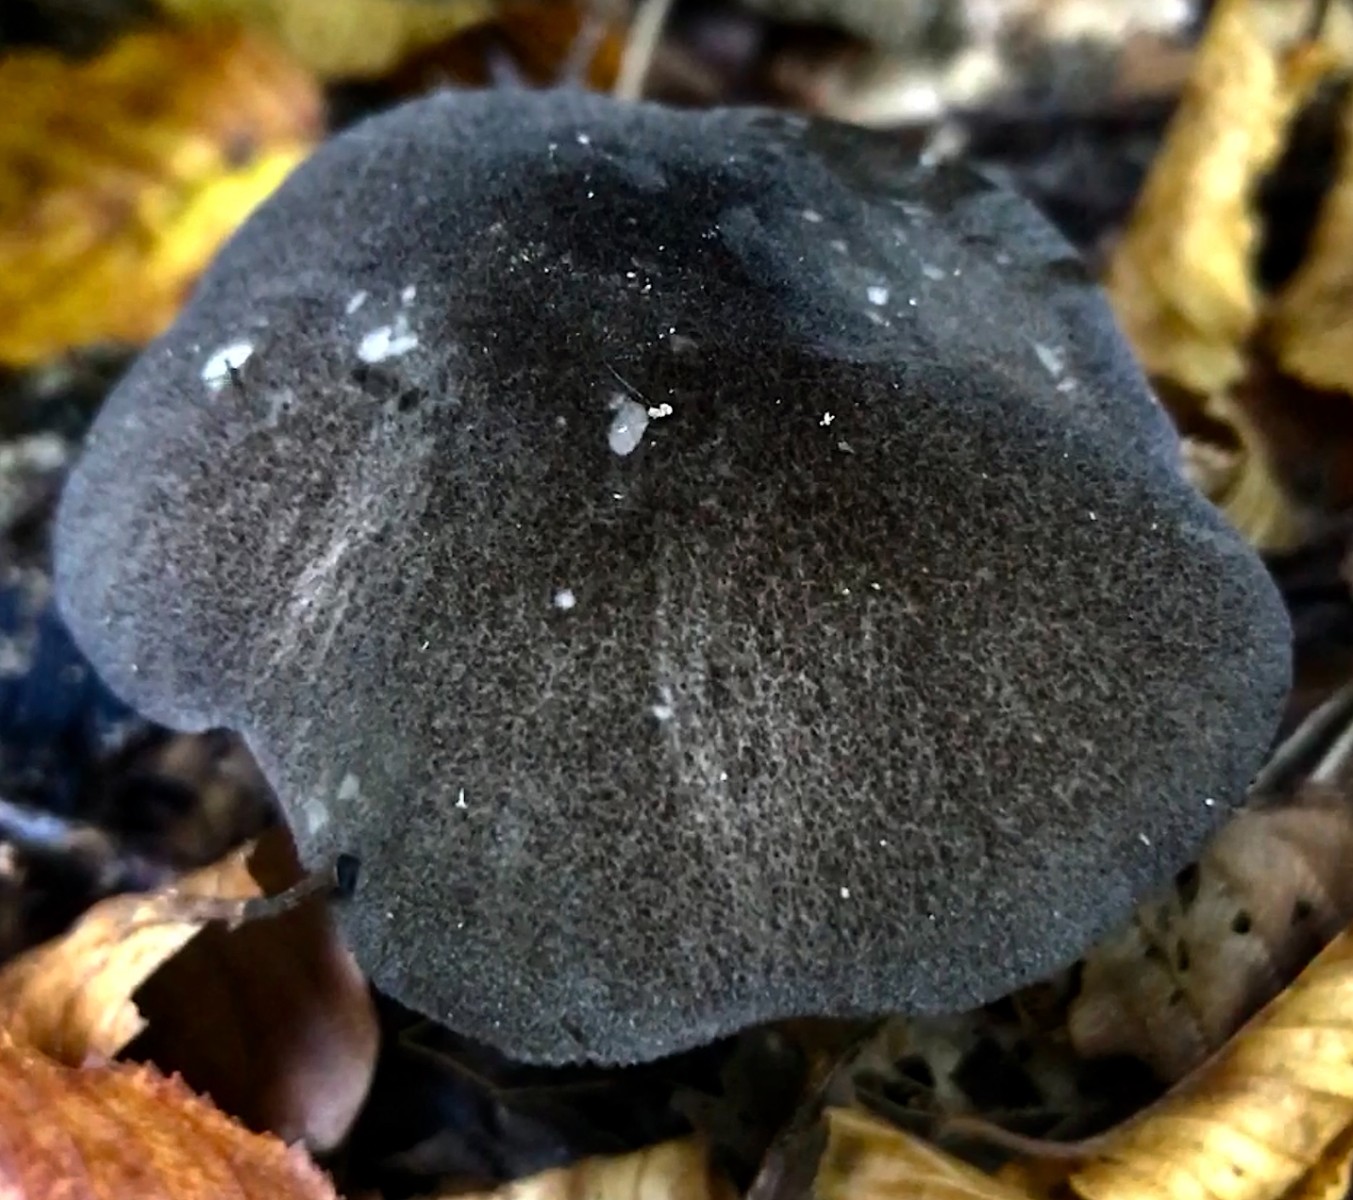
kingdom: Fungi
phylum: Basidiomycota
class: Agaricomycetes
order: Agaricales
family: Pluteaceae
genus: Pluteus
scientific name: Pluteus ephebeus
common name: Sooty shield
